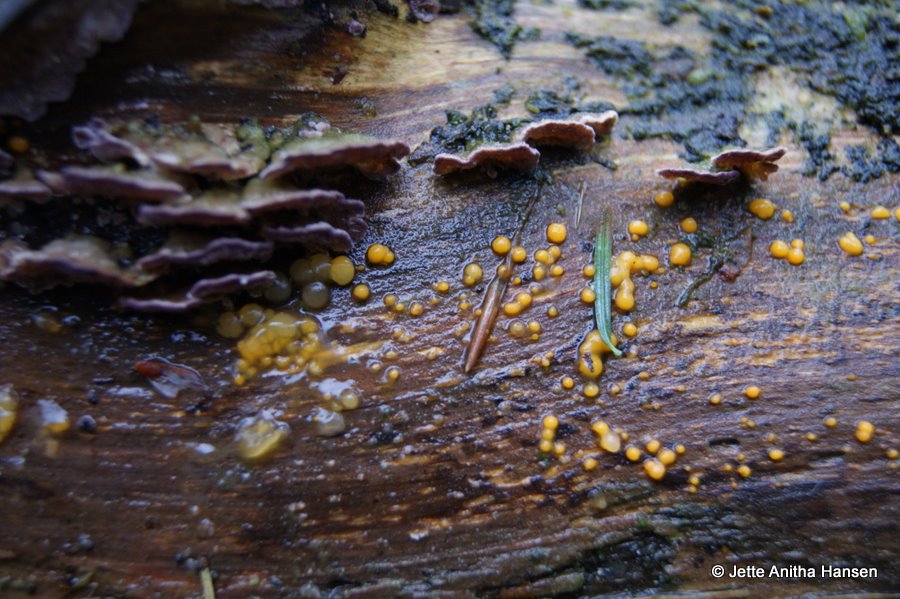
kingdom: Fungi
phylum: Basidiomycota
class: Dacrymycetes
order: Dacrymycetales
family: Dacrymycetaceae
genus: Dacrymyces
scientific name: Dacrymyces stillatus
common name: almindelig tåresvamp
